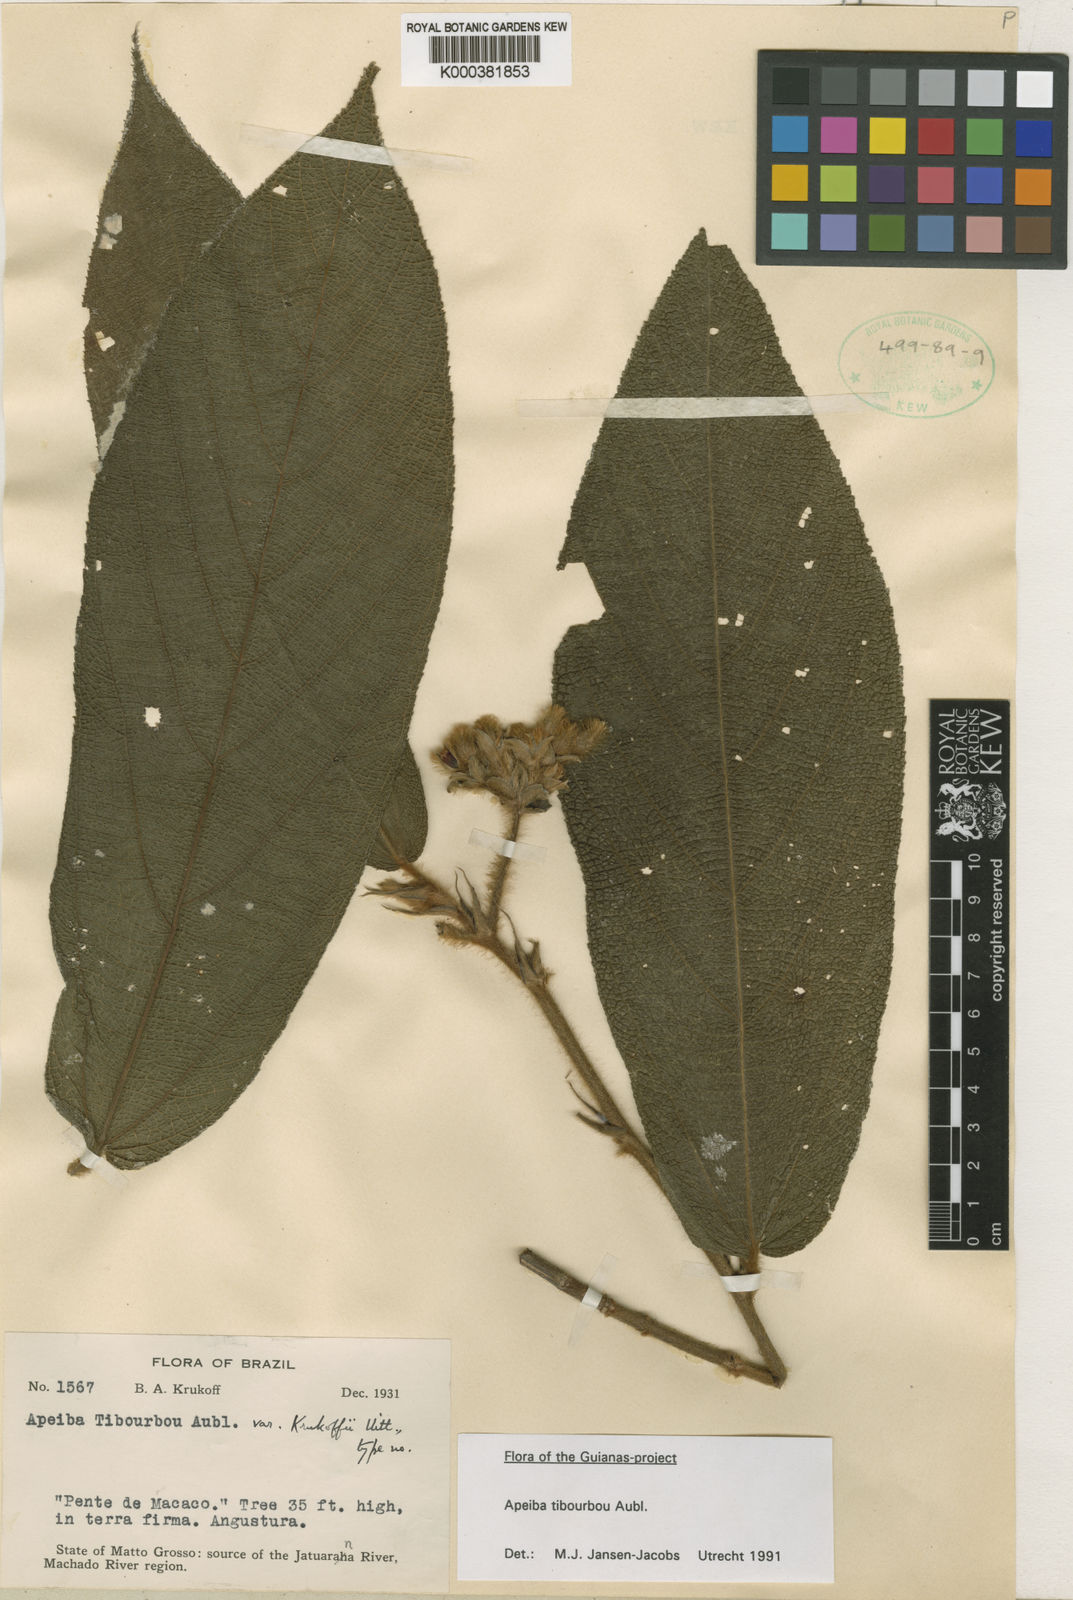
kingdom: Plantae
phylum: Tracheophyta
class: Magnoliopsida
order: Malvales
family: Malvaceae
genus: Apeiba
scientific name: Apeiba tibourbou
